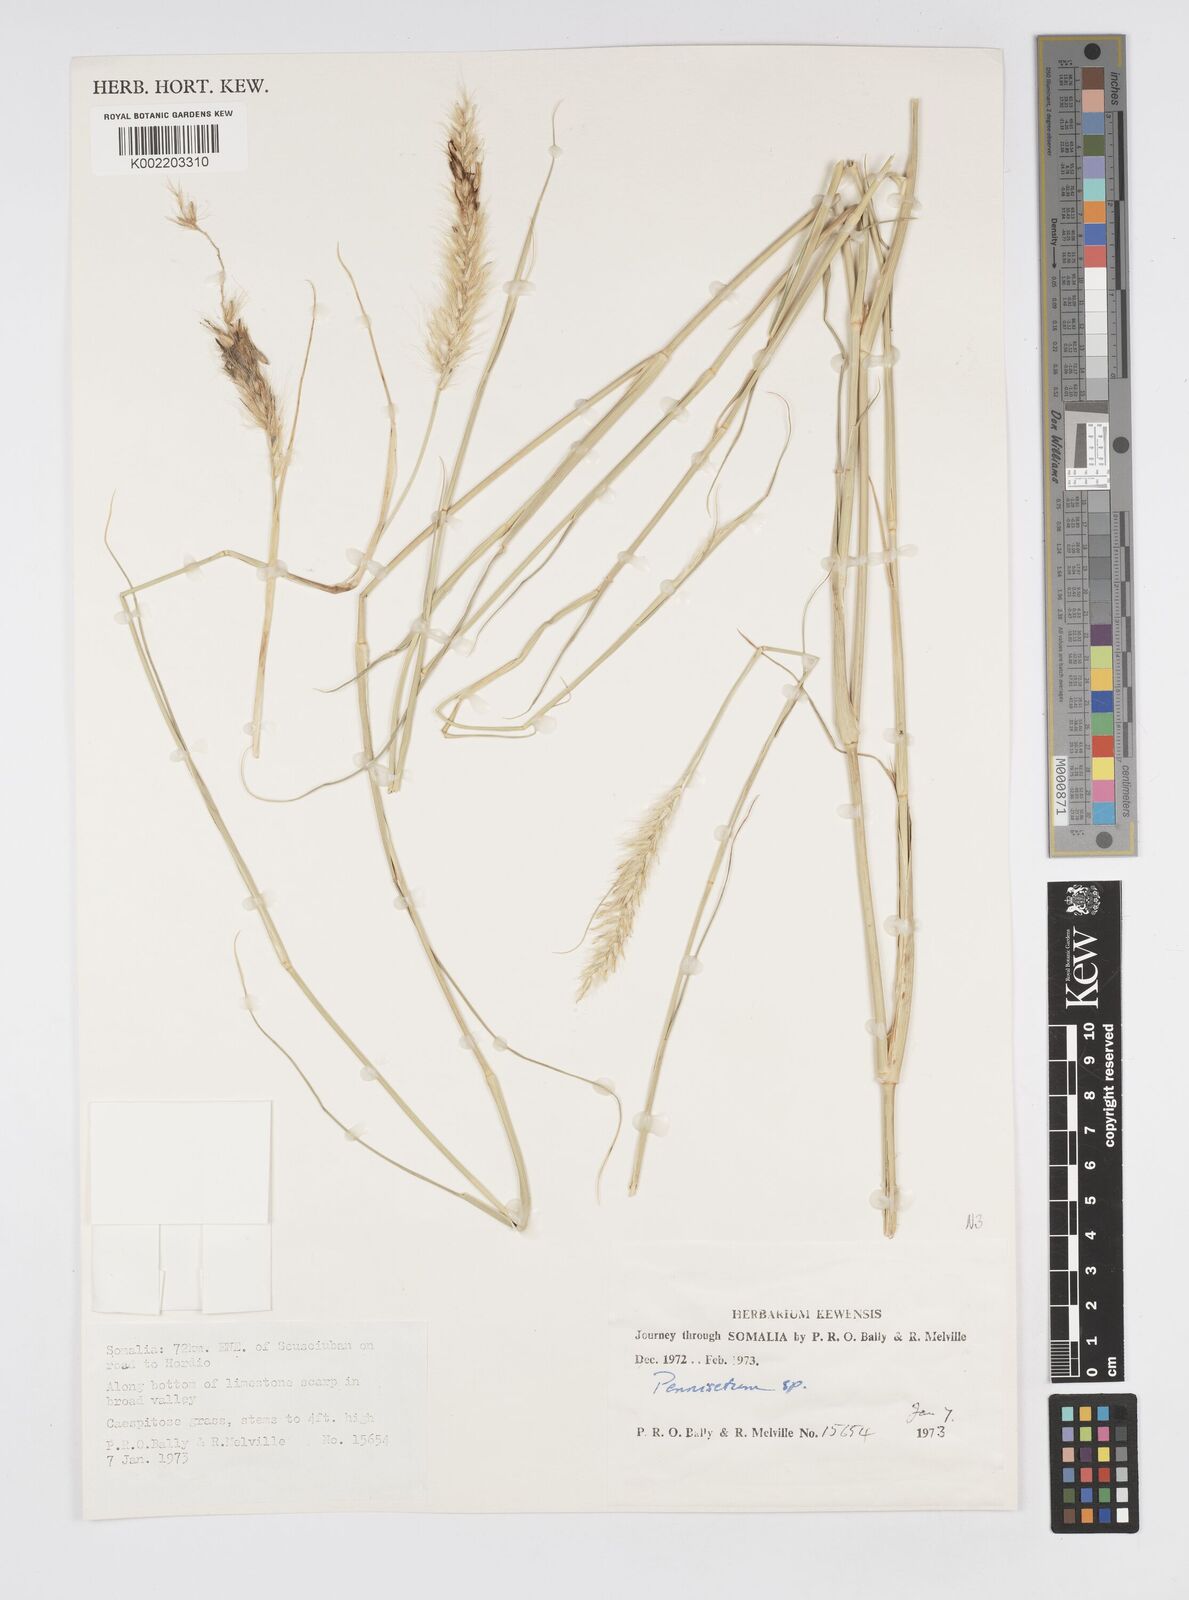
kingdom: Plantae
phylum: Tracheophyta
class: Liliopsida
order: Poales
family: Poaceae
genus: Cenchrus
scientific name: Cenchrus divisus
